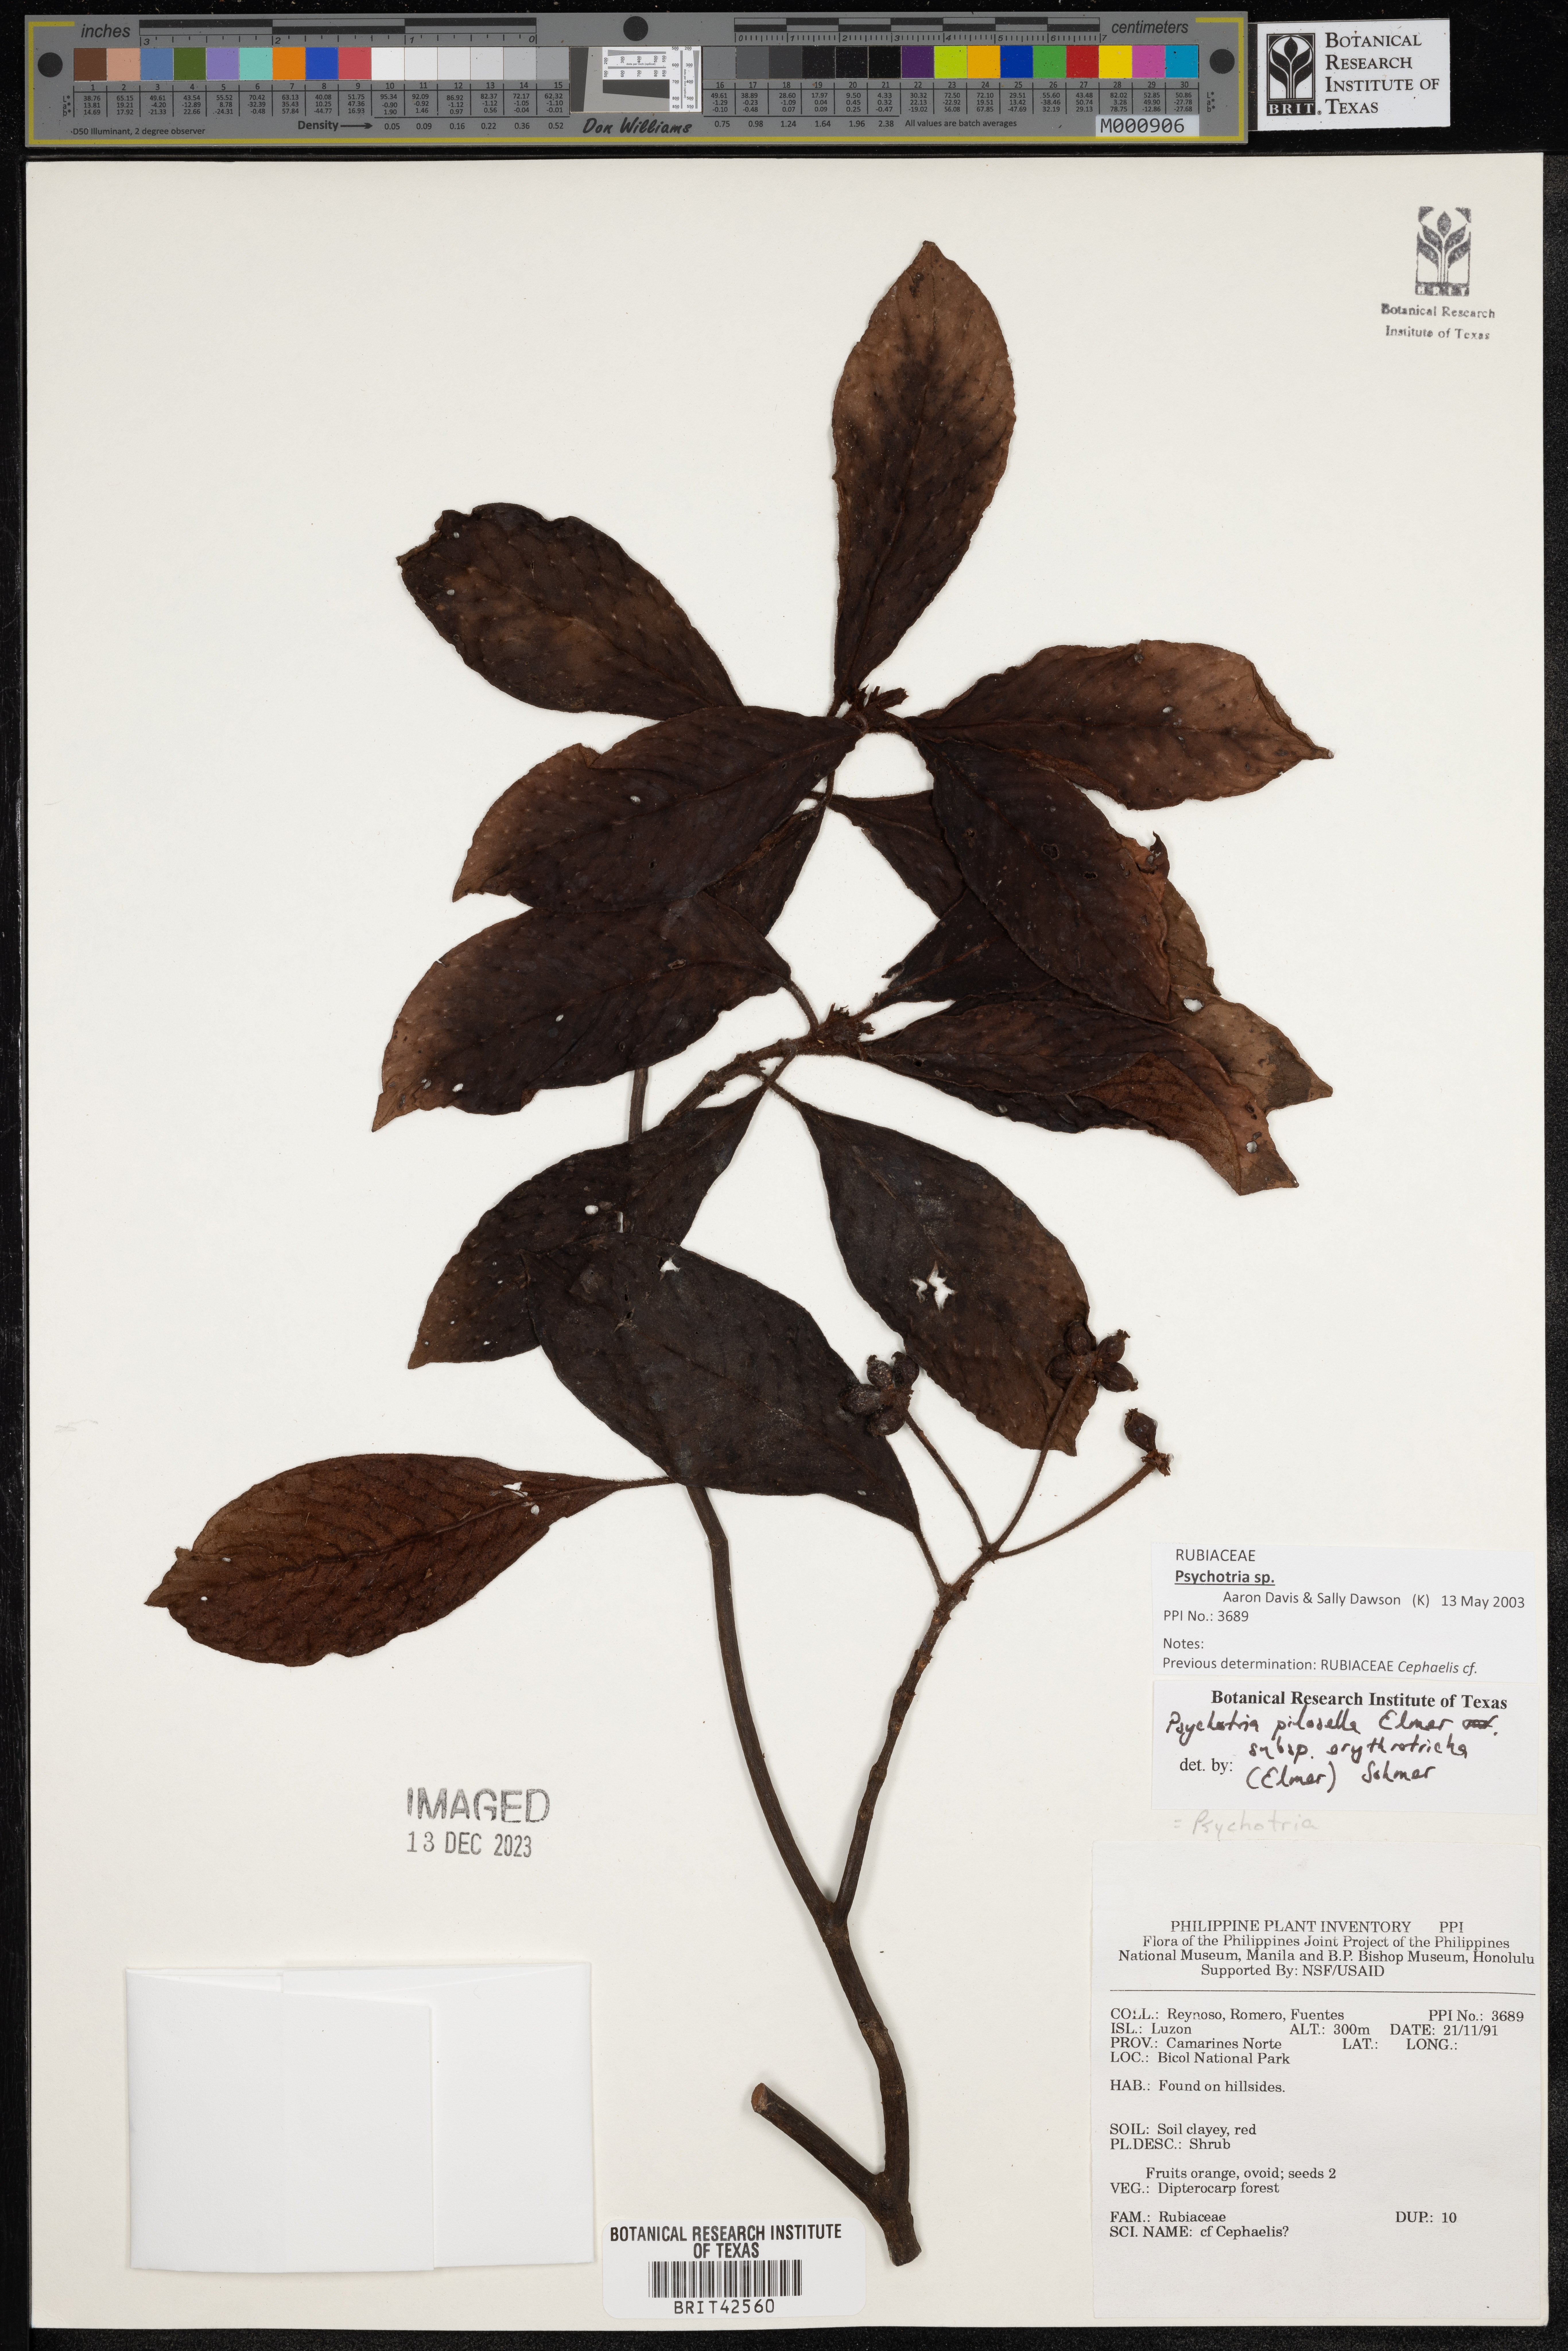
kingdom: Plantae
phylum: Tracheophyta
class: Magnoliopsida
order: Gentianales
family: Rubiaceae
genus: Psychotria
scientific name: Psychotria pilosella
